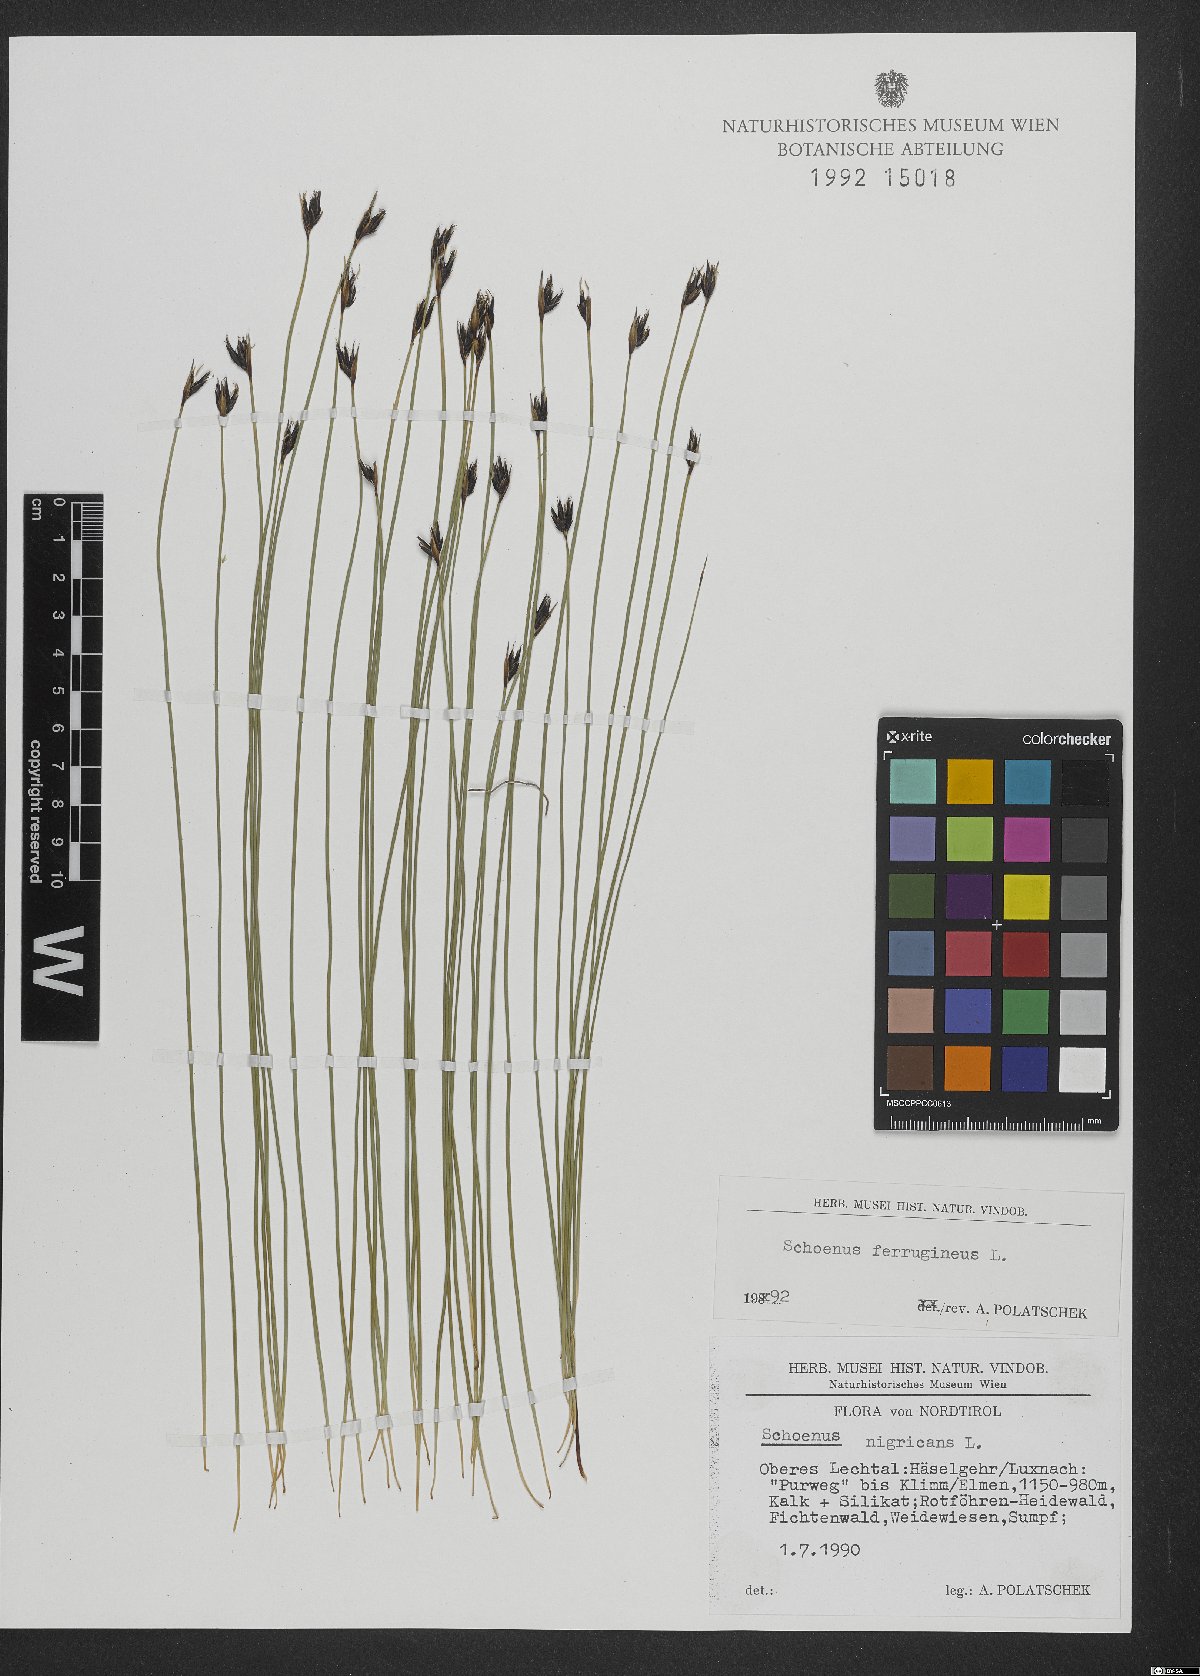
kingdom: Plantae
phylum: Tracheophyta
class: Liliopsida
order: Poales
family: Cyperaceae
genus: Schoenus
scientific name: Schoenus ferrugineus
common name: Brown bog-rush
